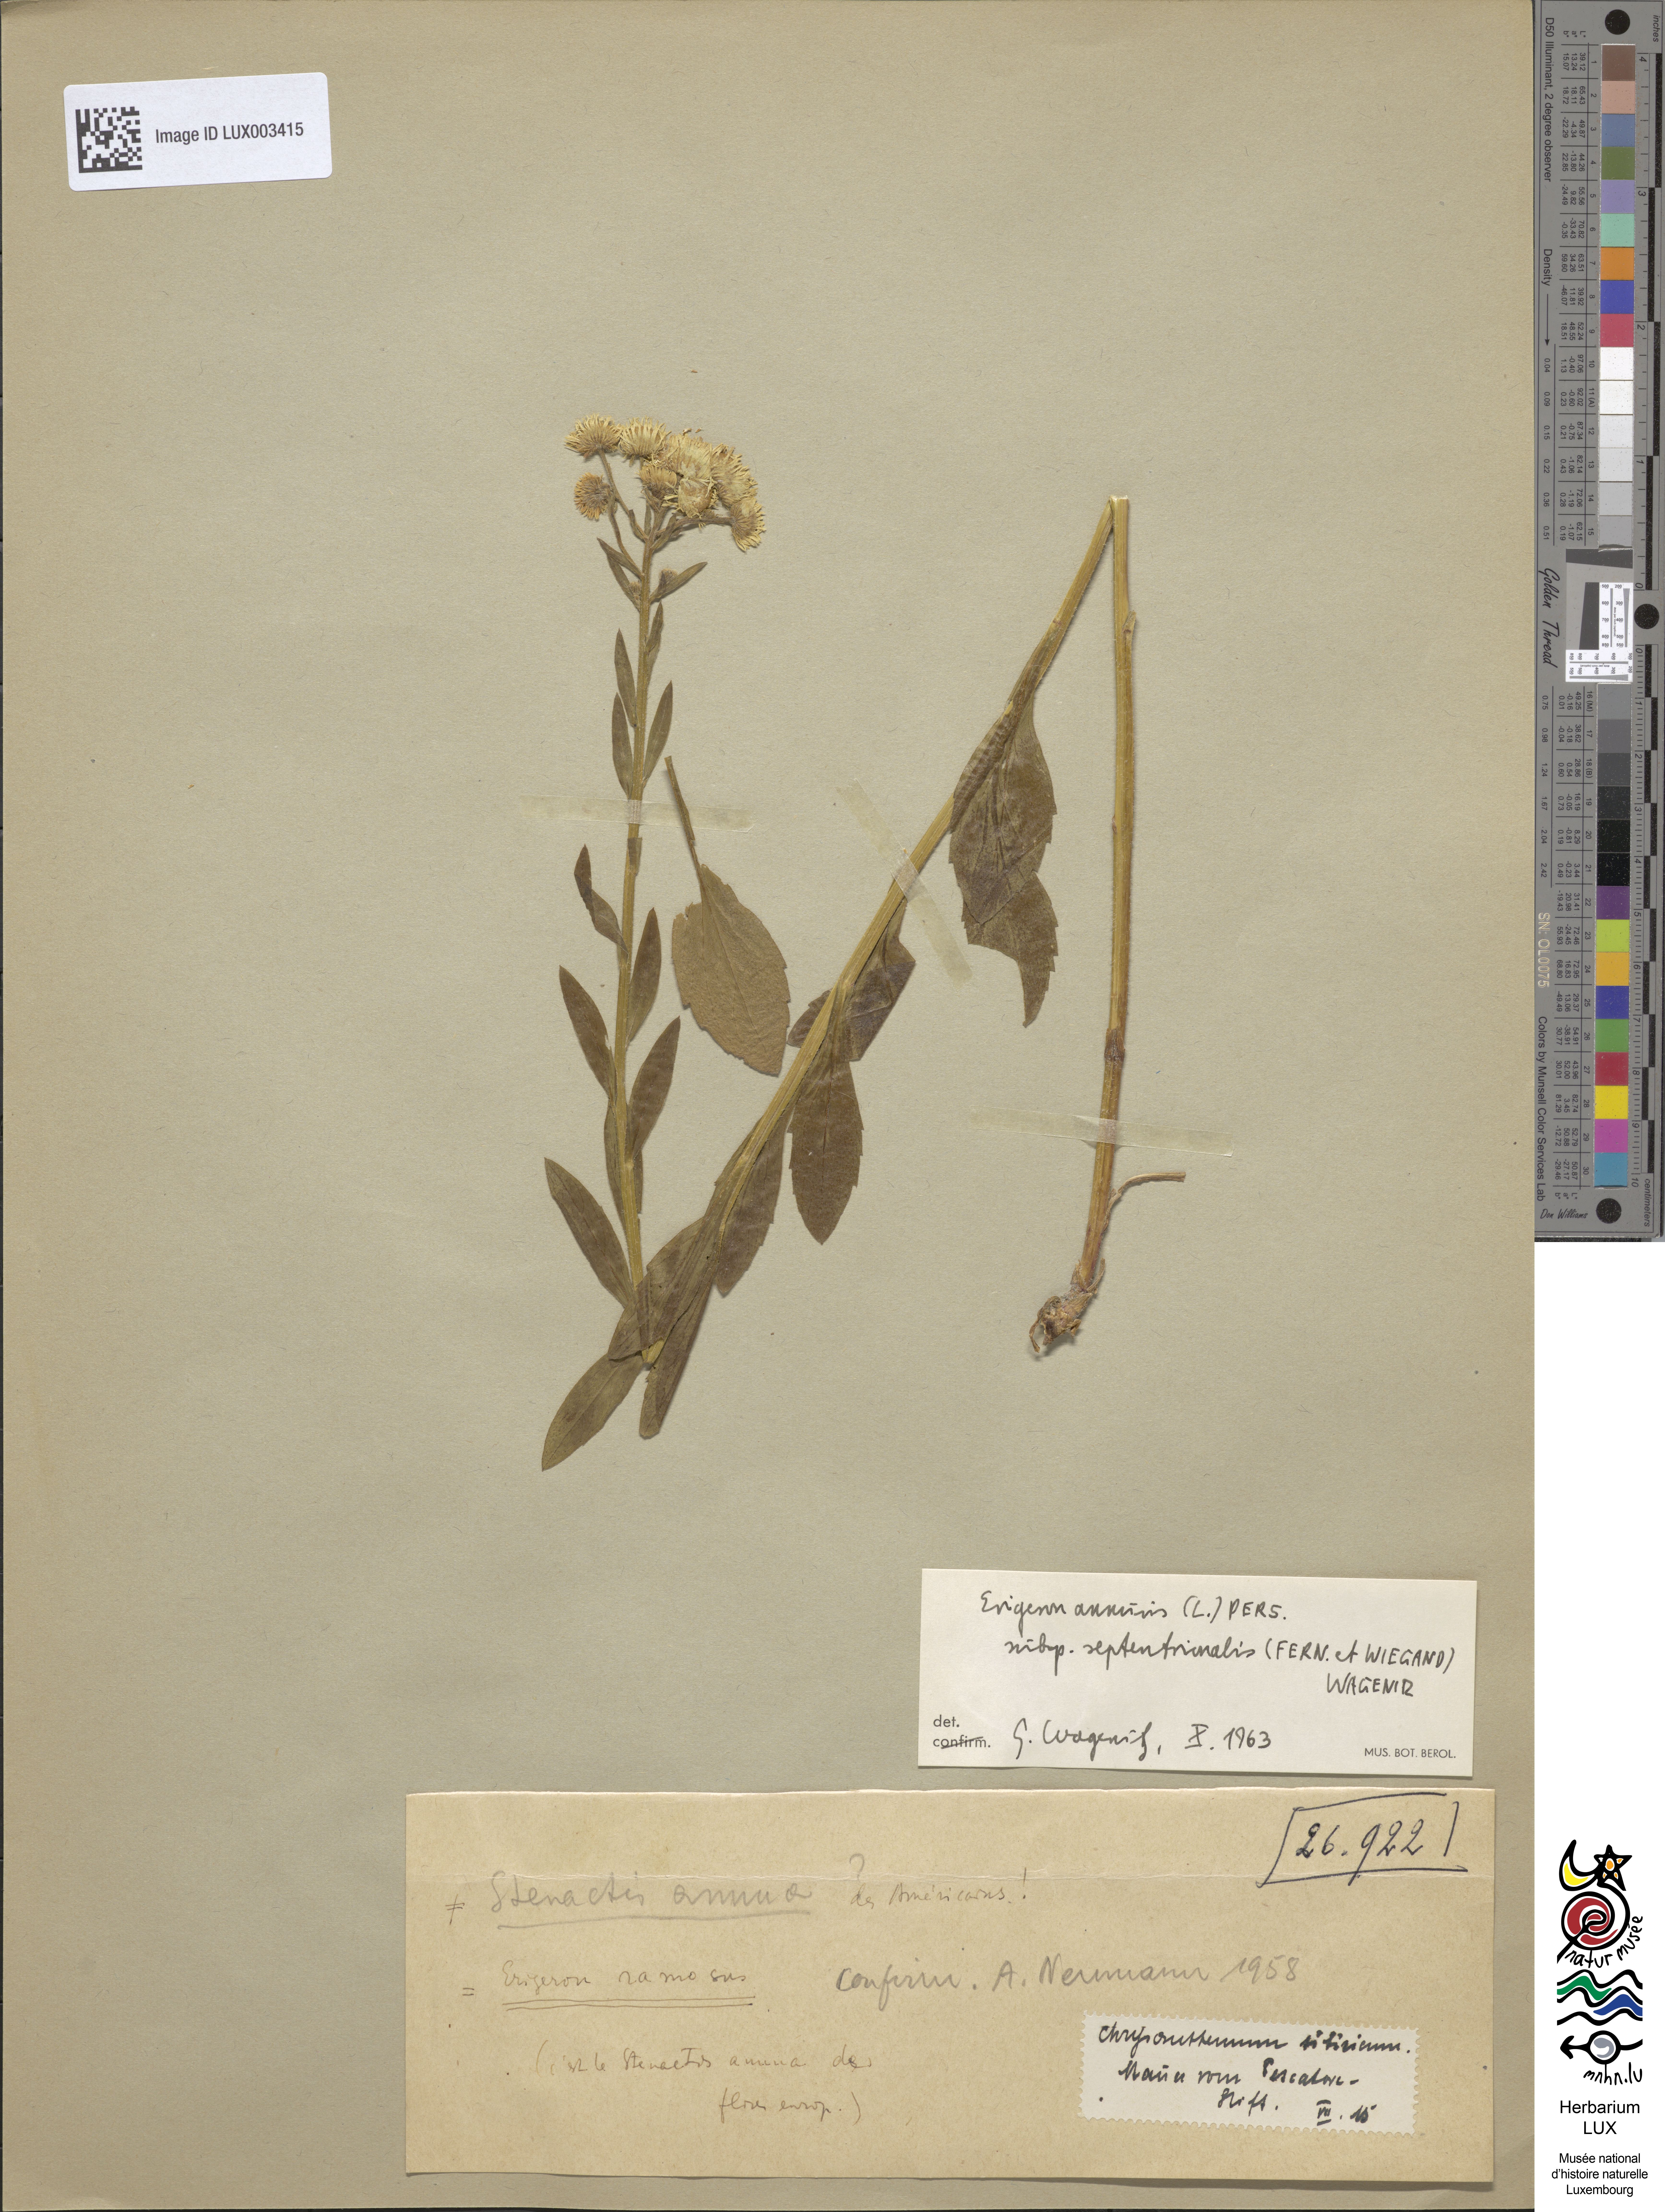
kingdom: Plantae
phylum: Tracheophyta
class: Magnoliopsida
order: Asterales
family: Asteraceae
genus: Erigeron
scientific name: Erigeron annuus
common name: Tall fleabane
